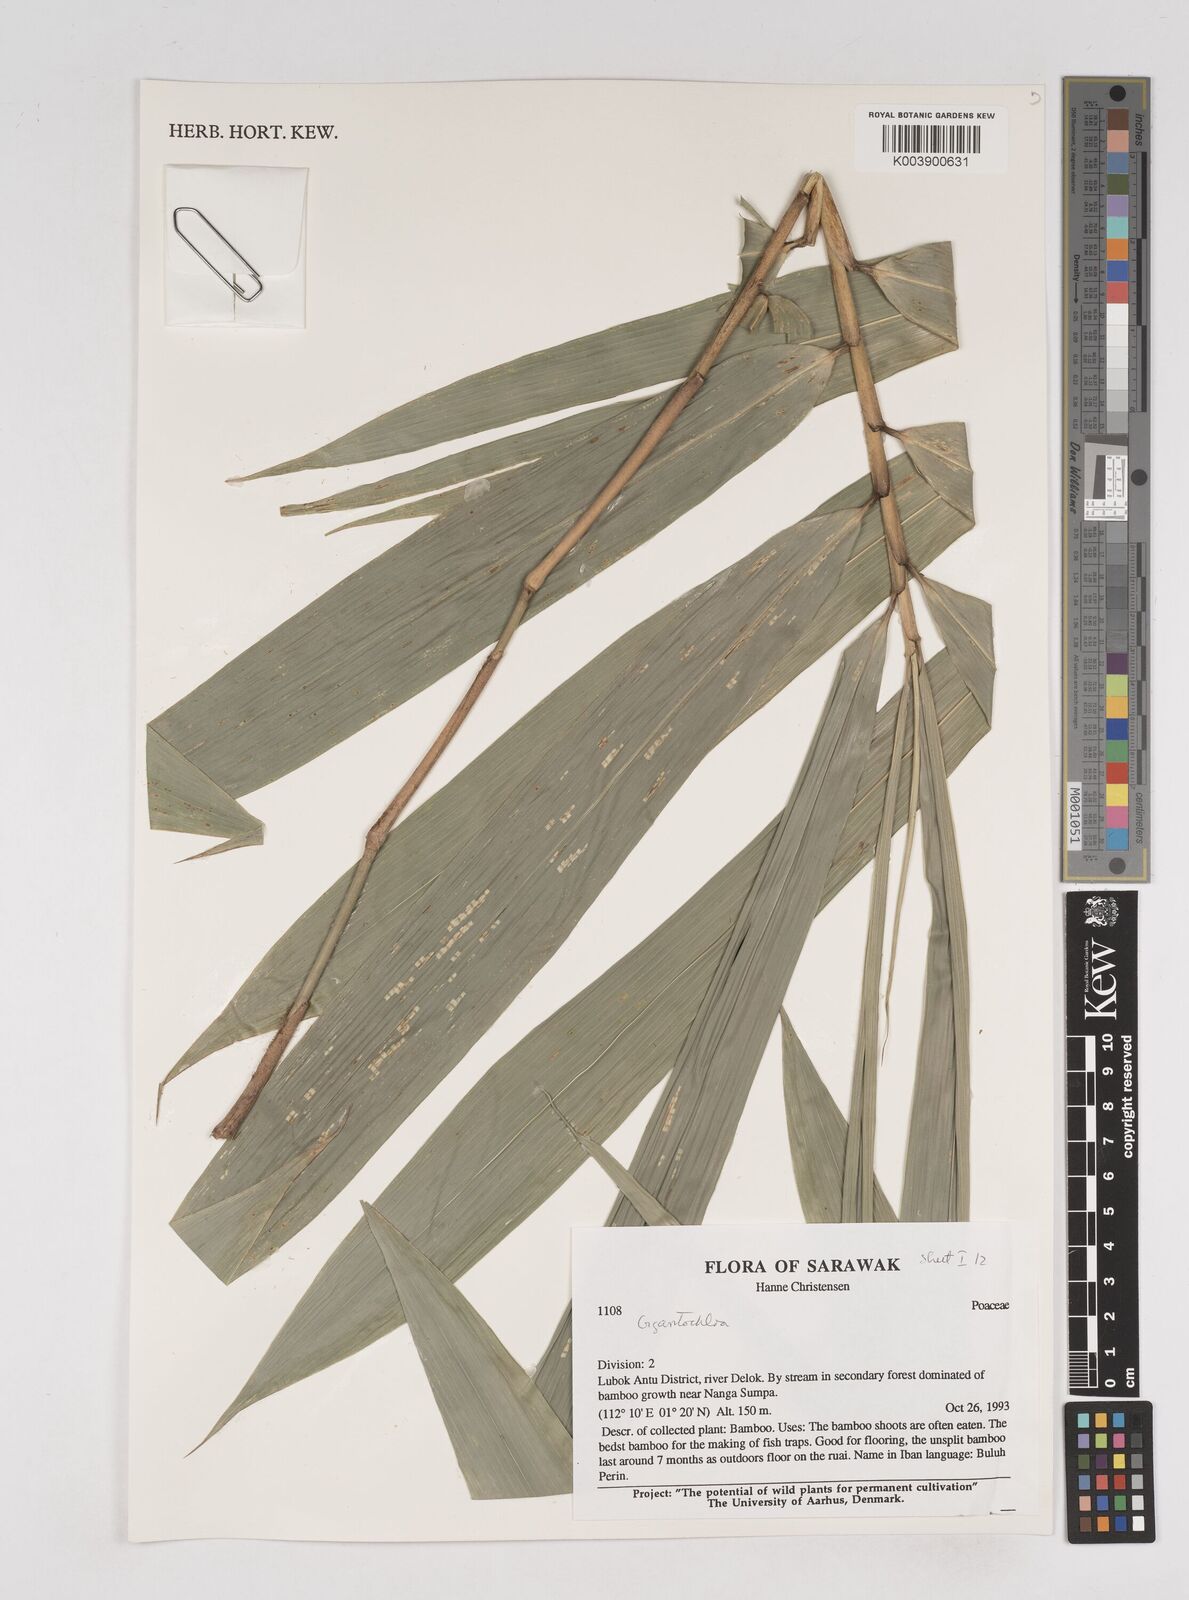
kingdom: Plantae
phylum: Tracheophyta
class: Liliopsida
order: Poales
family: Poaceae
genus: Gigantochloa
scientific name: Gigantochloa
